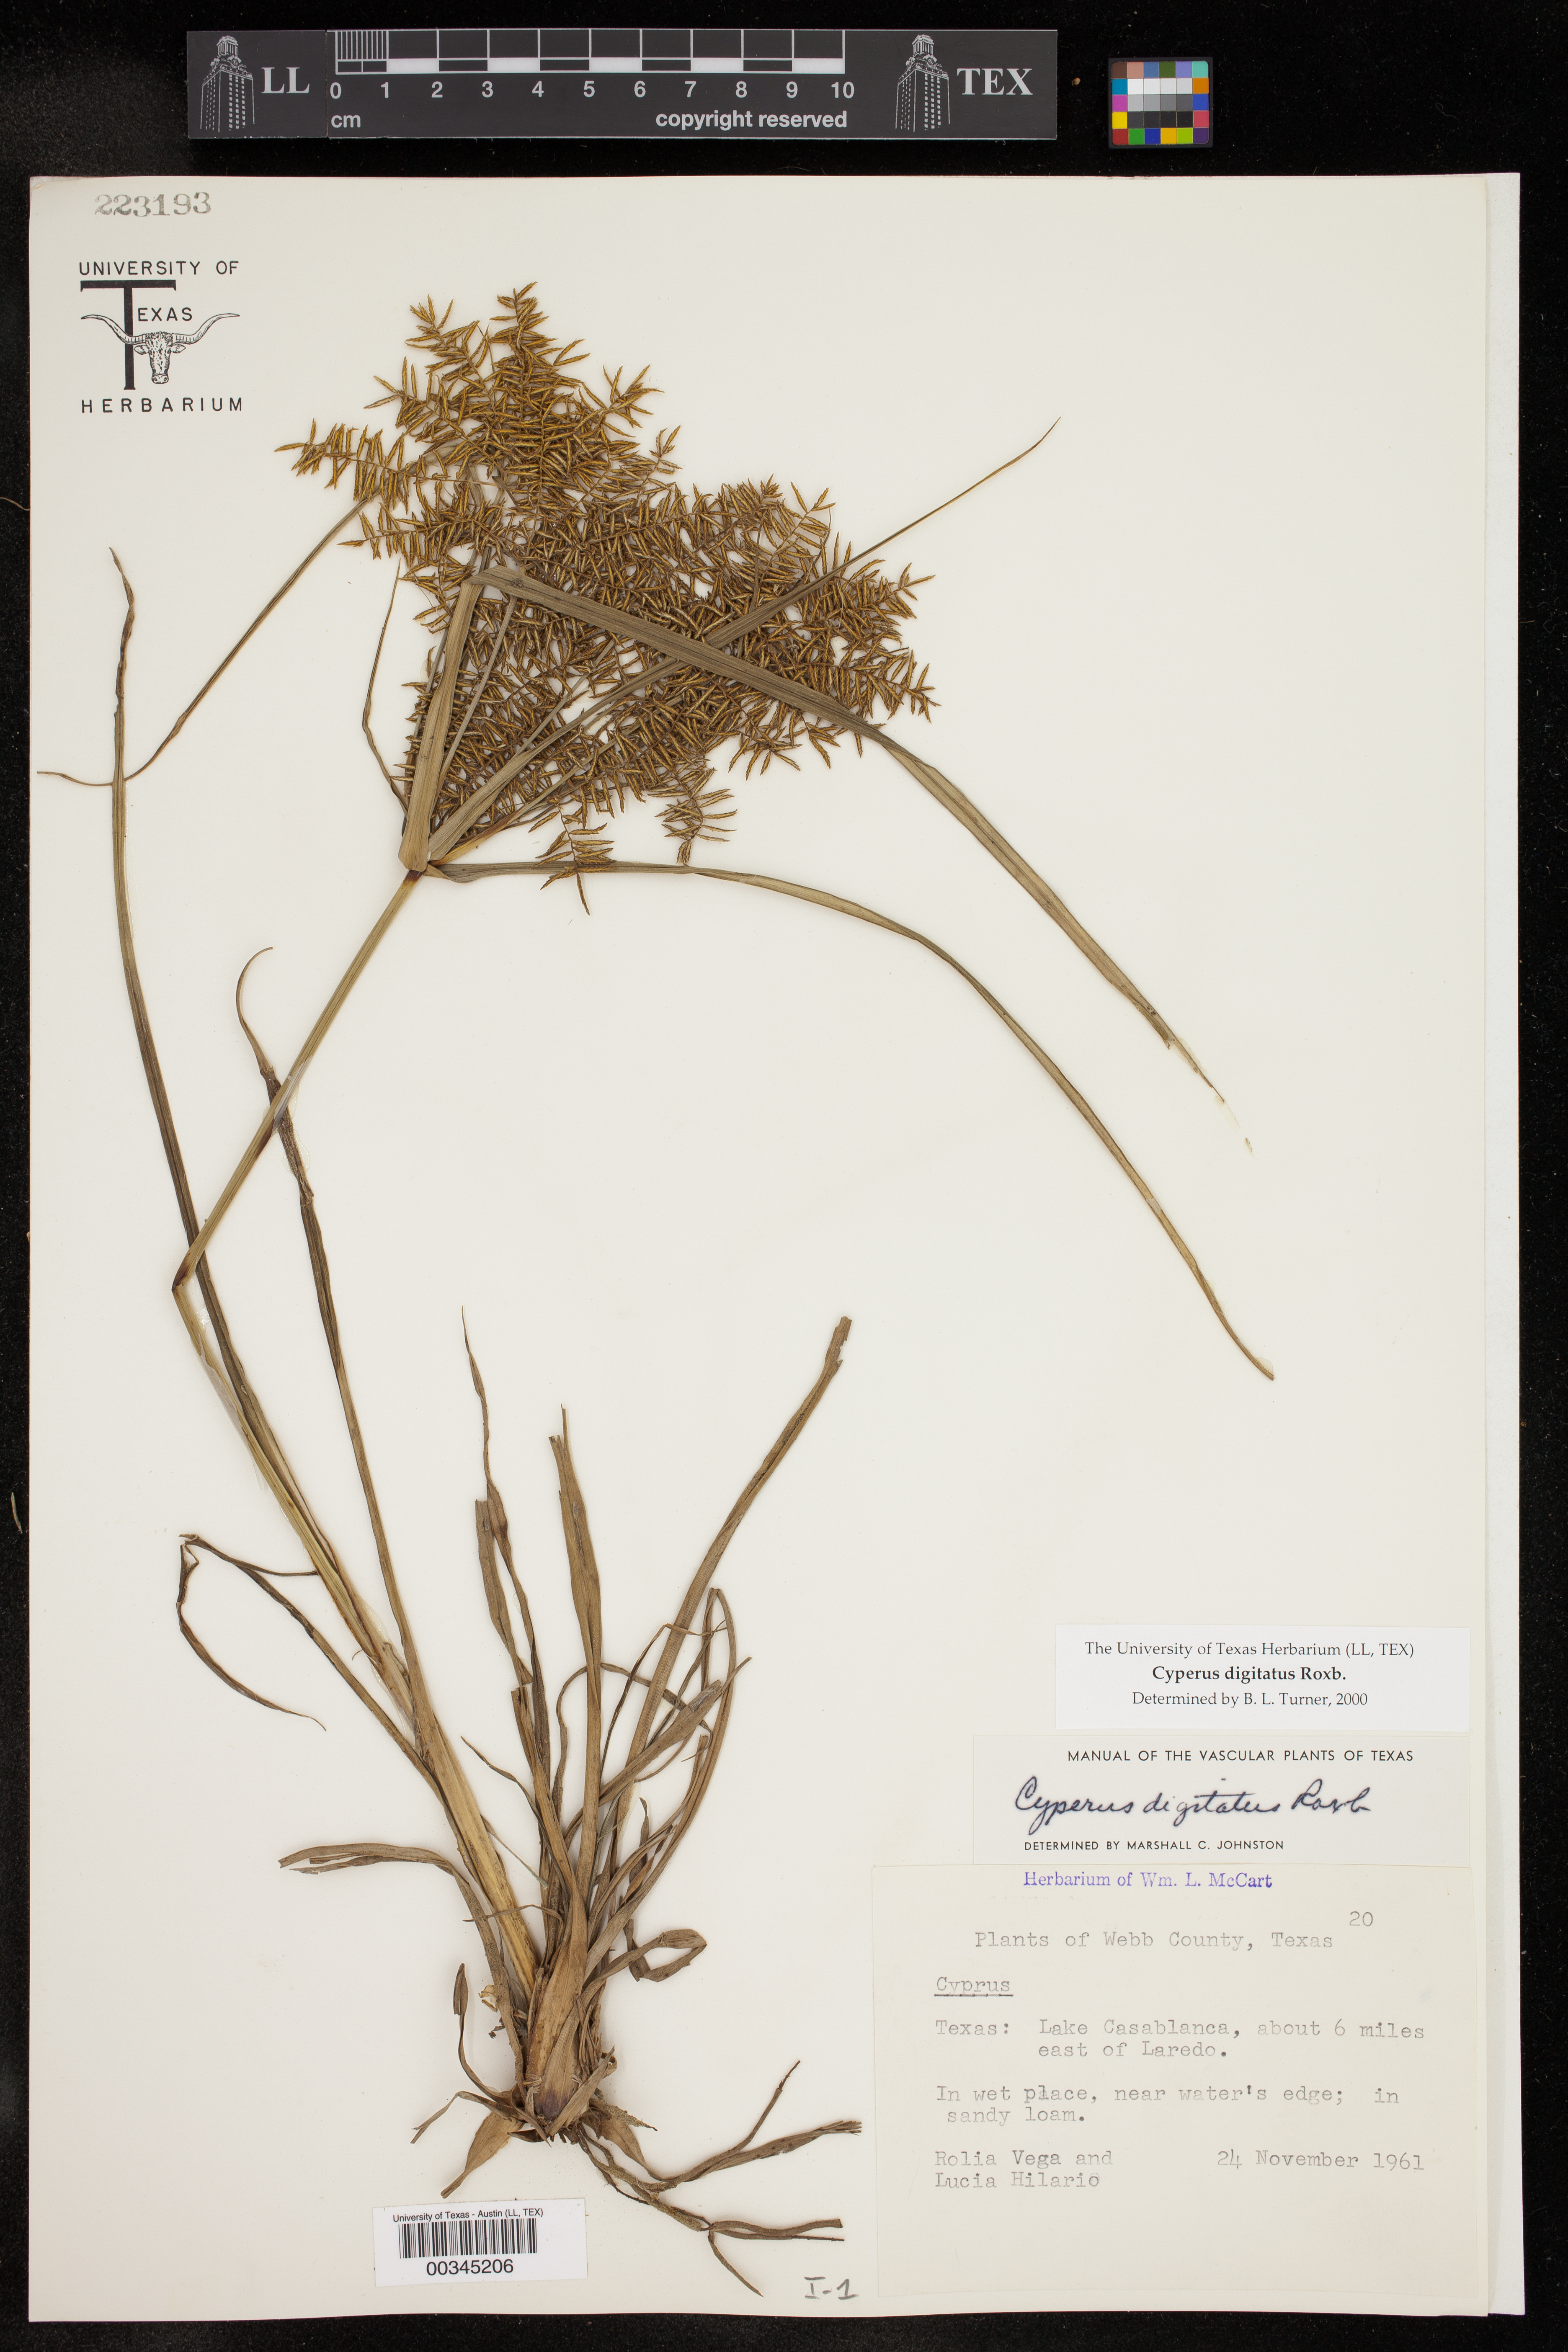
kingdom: Plantae
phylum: Tracheophyta
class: Liliopsida
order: Poales
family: Cyperaceae
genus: Cyperus
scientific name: Cyperus digitatus
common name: Finger flatsedge
